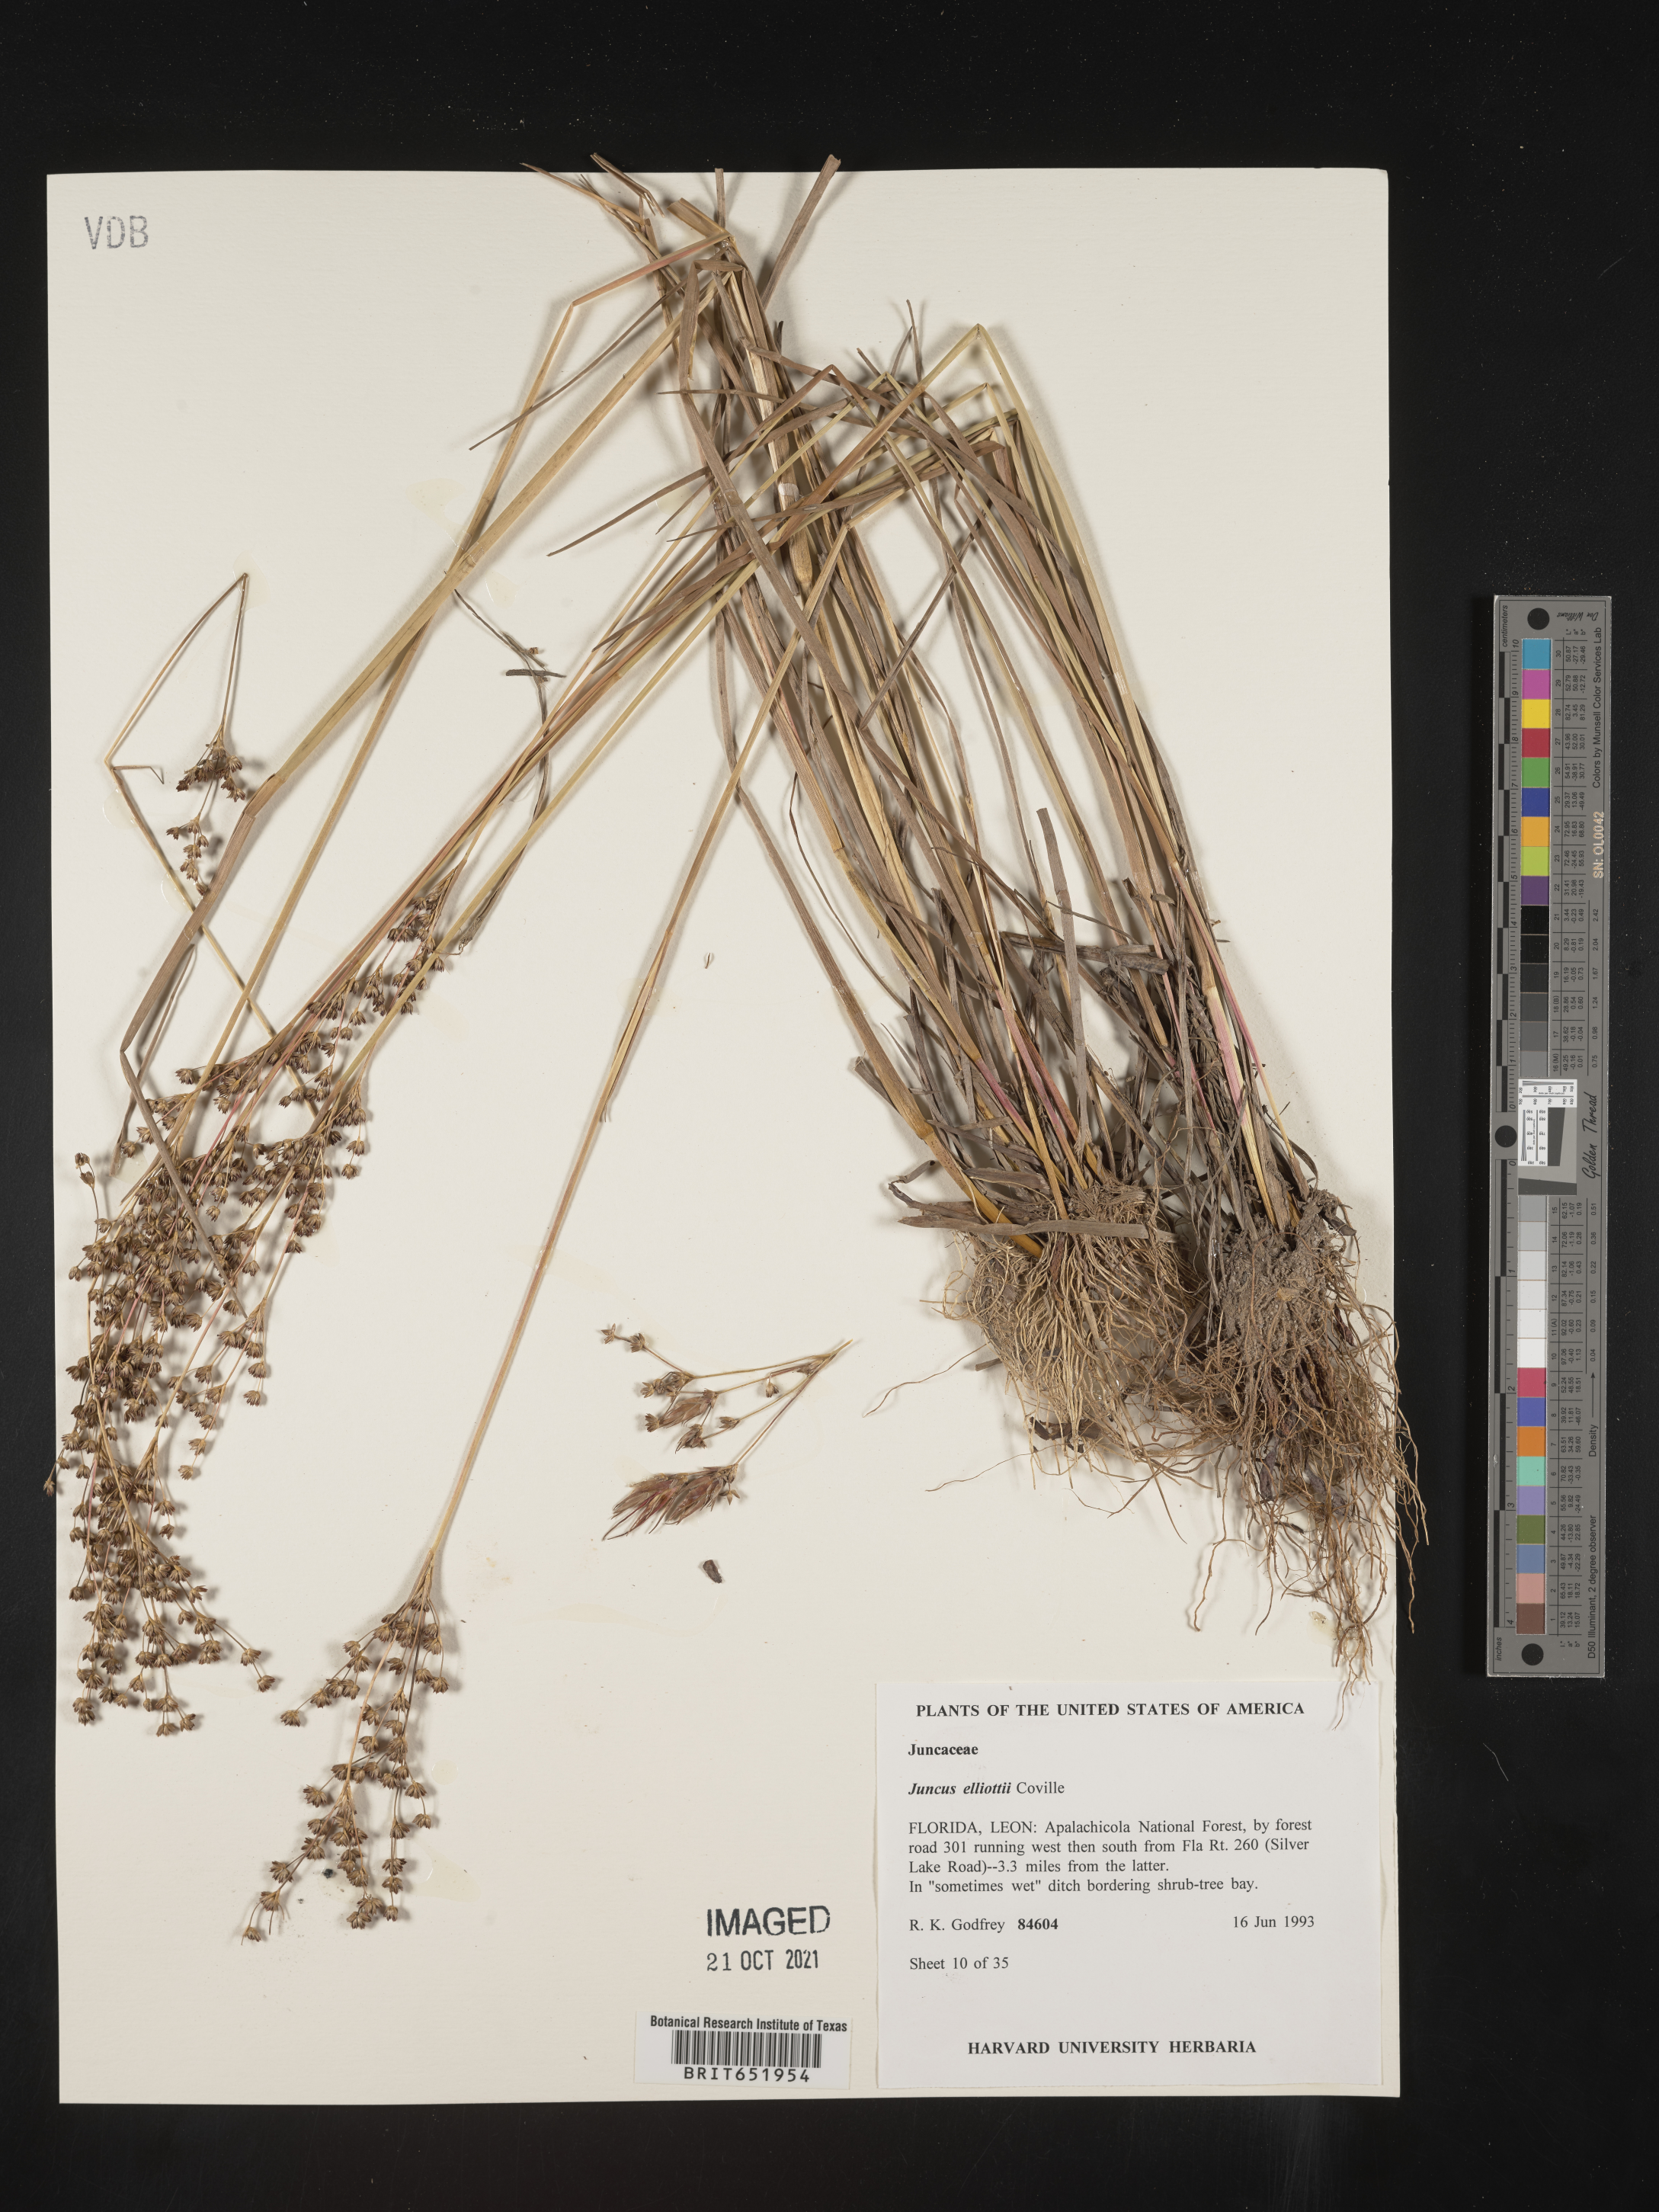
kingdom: Plantae
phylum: Tracheophyta
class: Liliopsida
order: Poales
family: Juncaceae
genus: Juncus
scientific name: Juncus elliottii
